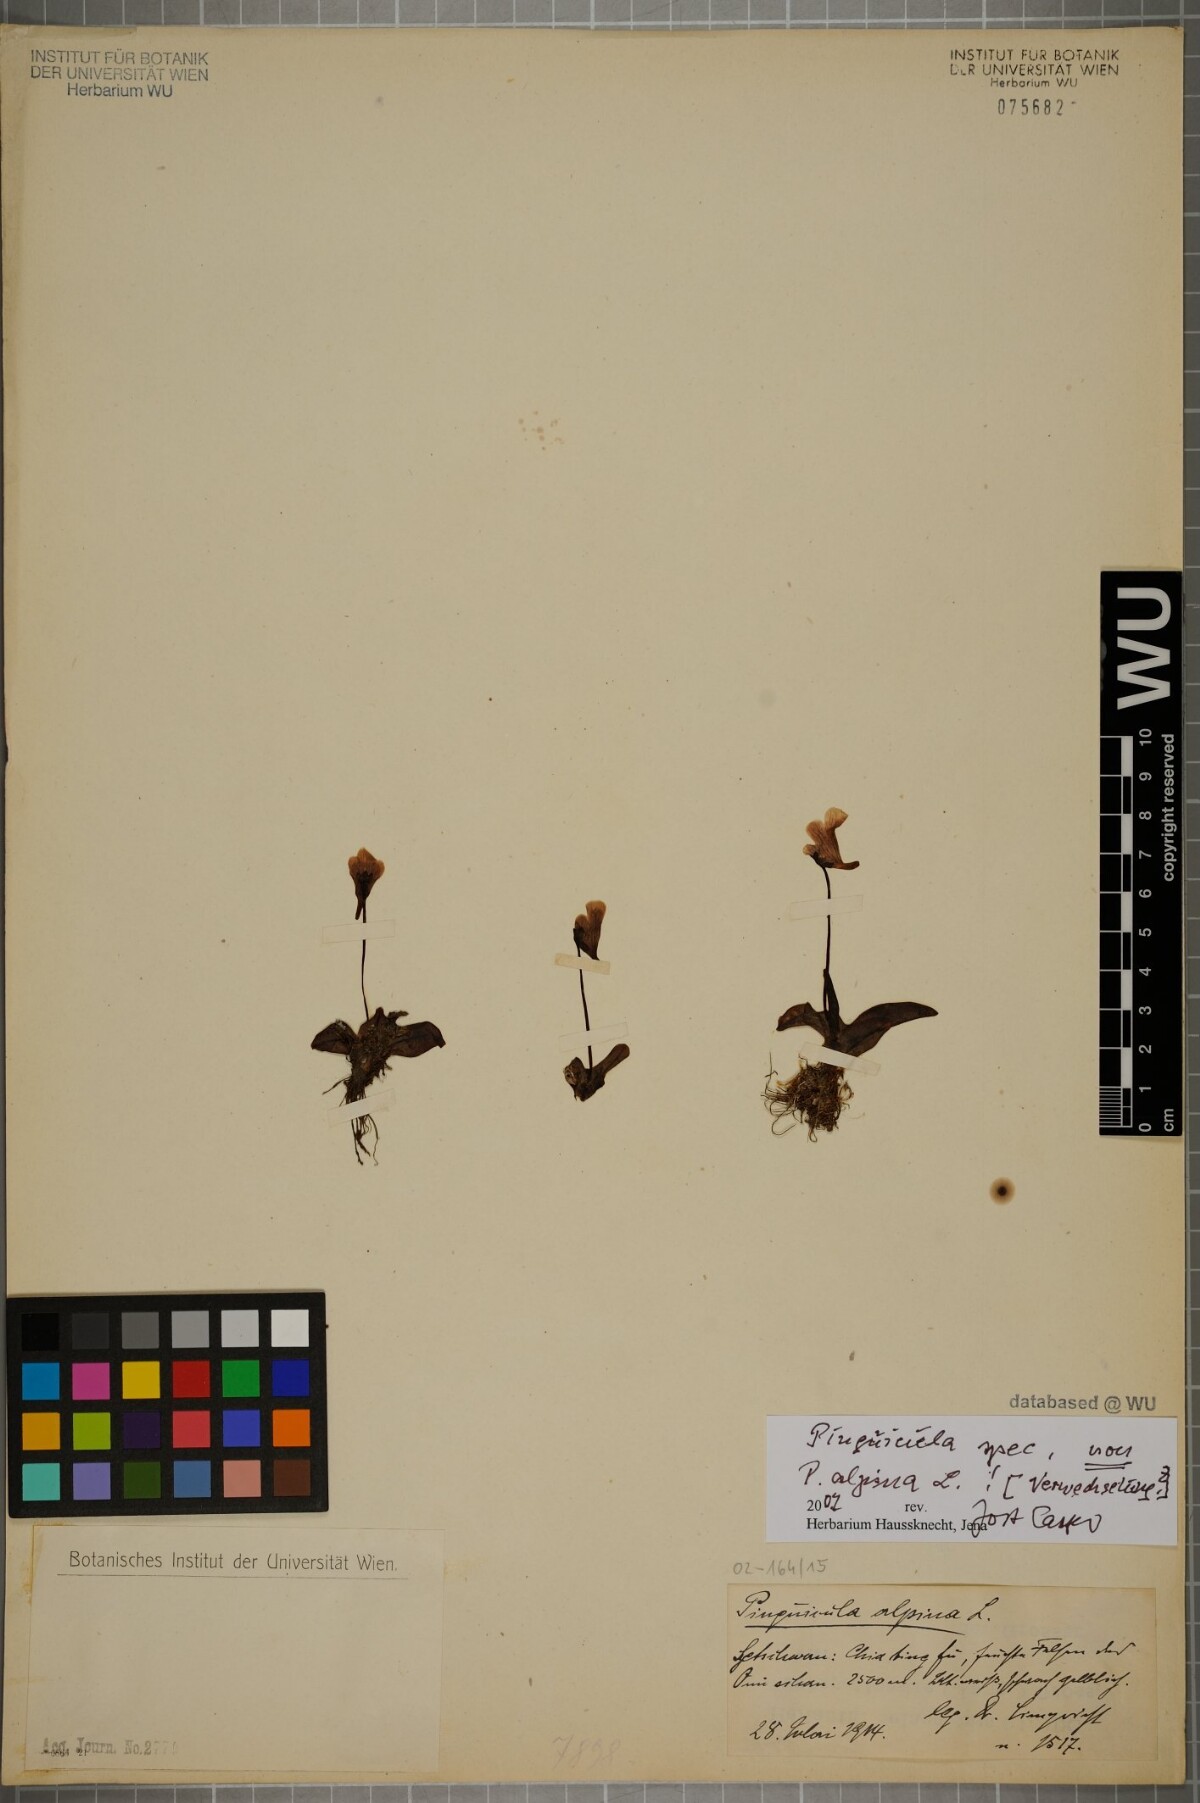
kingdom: Plantae
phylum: Tracheophyta
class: Magnoliopsida
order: Lamiales
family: Lentibulariaceae
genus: Pinguicula
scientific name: Pinguicula
